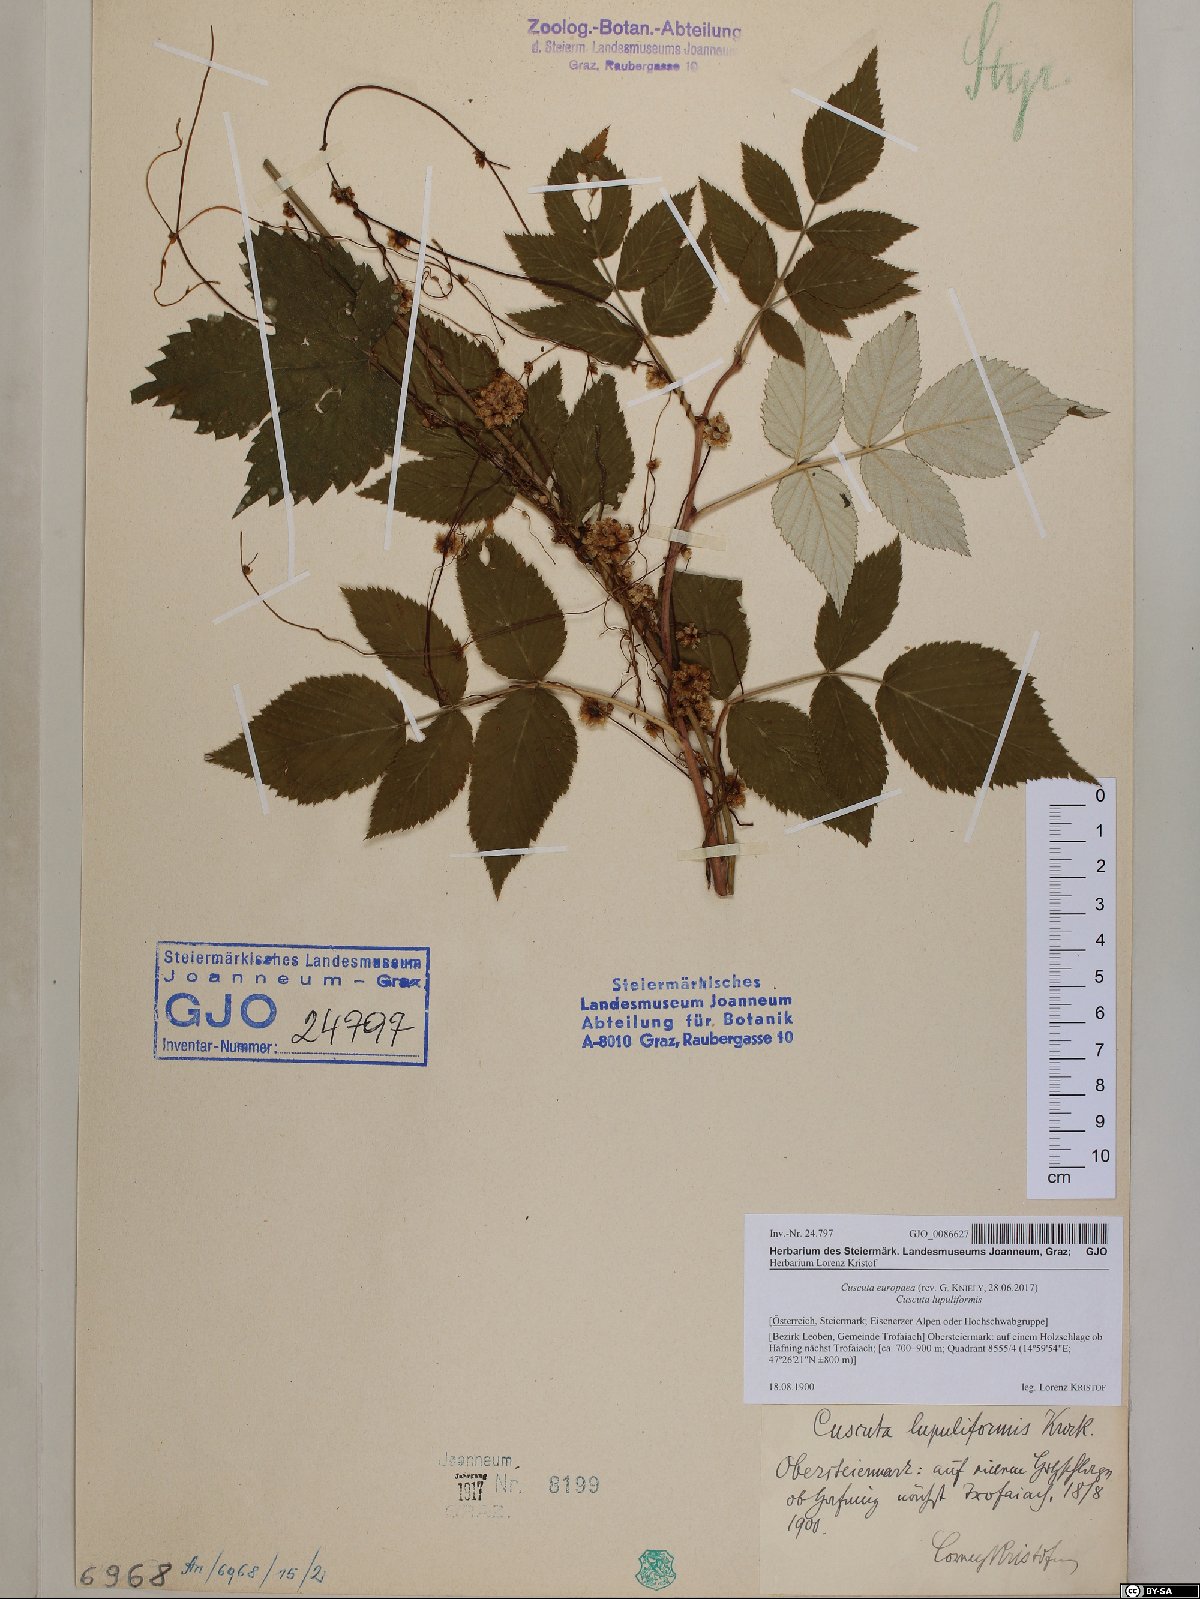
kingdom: Plantae
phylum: Tracheophyta
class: Magnoliopsida
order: Solanales
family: Convolvulaceae
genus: Cuscuta
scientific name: Cuscuta europaea
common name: Greater dodder
